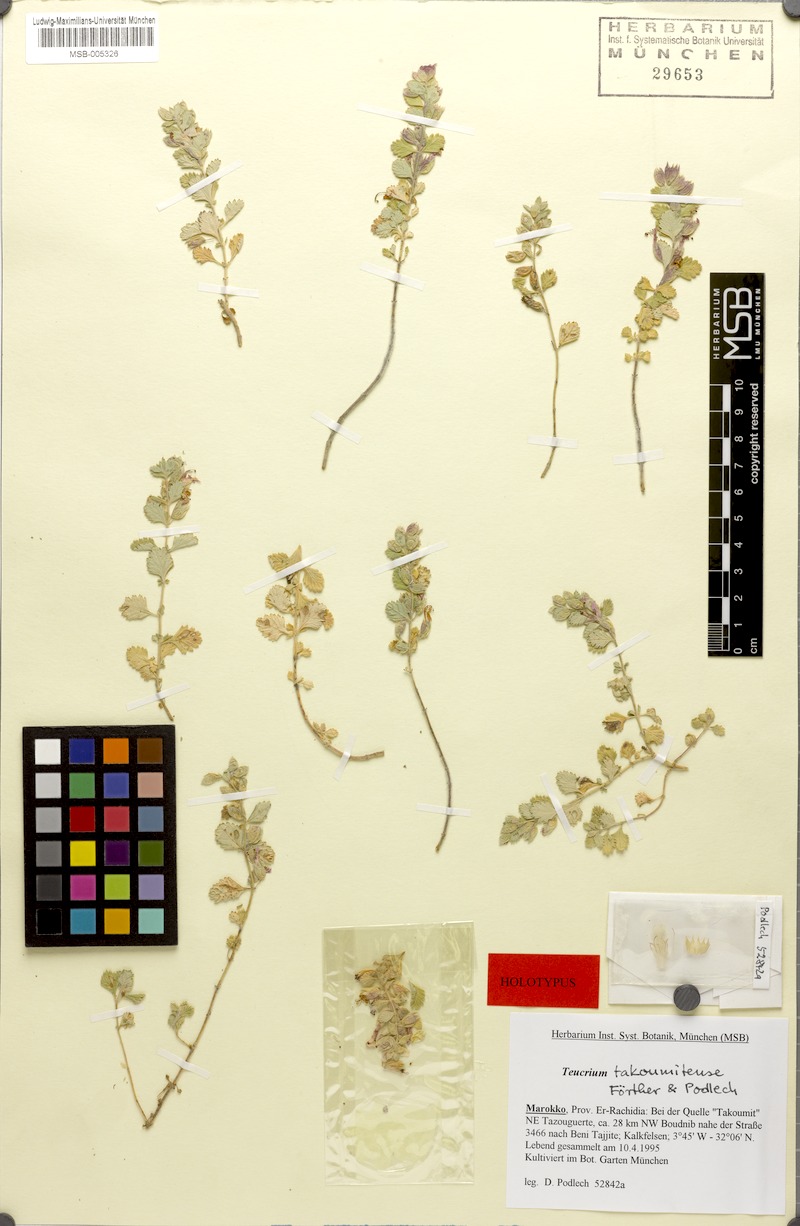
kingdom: Plantae
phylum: Tracheophyta
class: Magnoliopsida
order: Lamiales
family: Lamiaceae
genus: Teucrium
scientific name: Teucrium chamaedrys
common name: Wall germander
